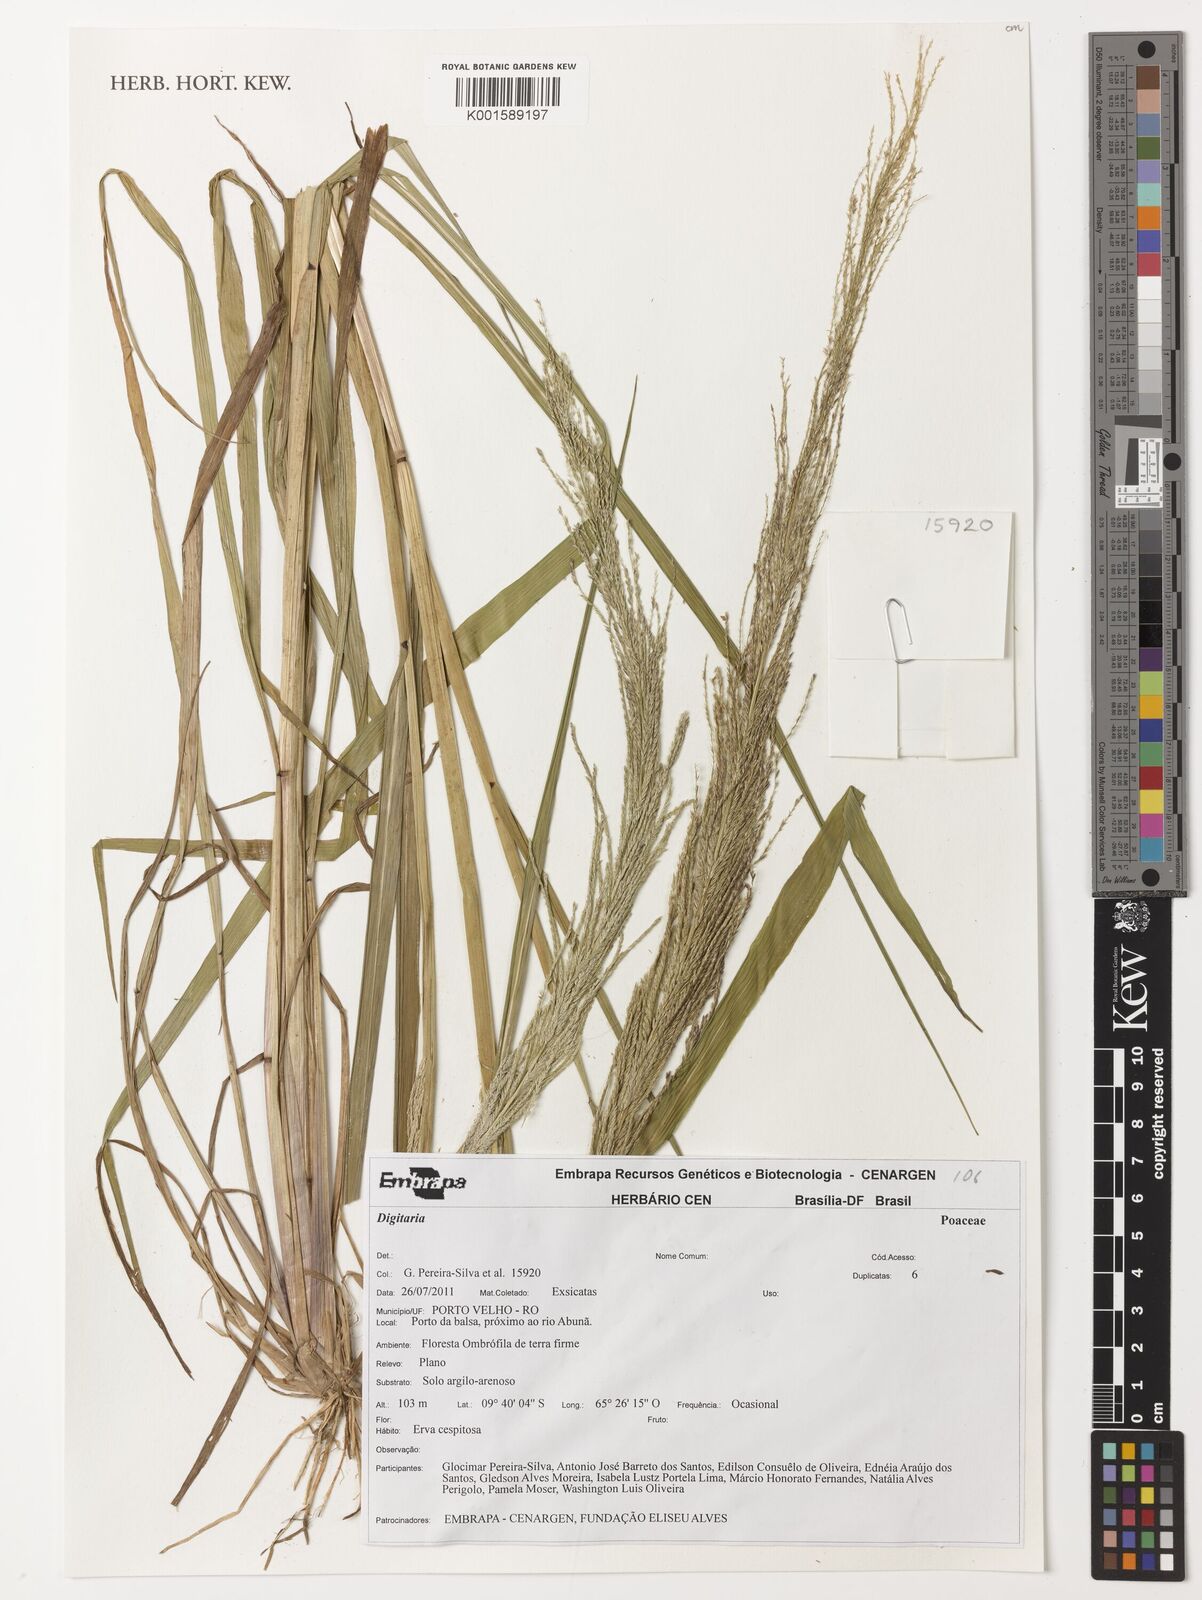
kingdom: Plantae
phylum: Tracheophyta
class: Liliopsida
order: Poales
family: Poaceae
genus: Digitaria
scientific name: Digitaria spec
